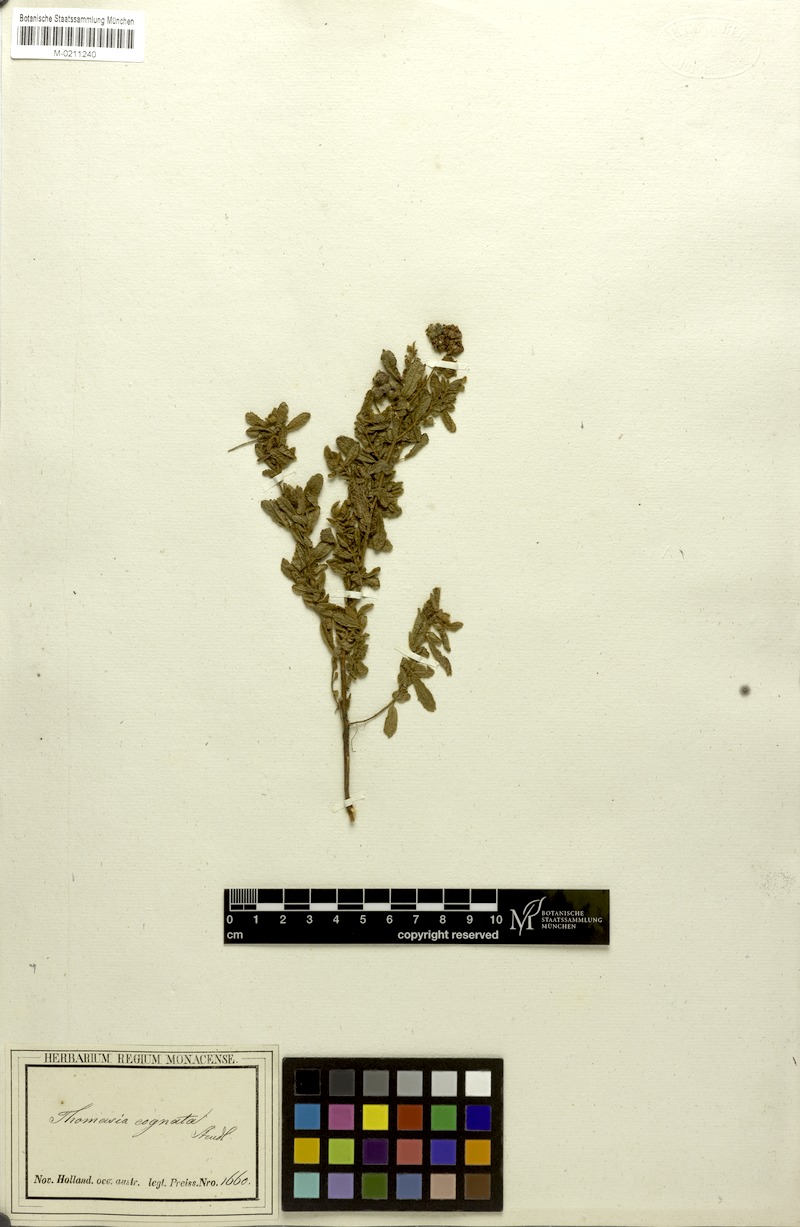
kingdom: Plantae
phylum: Tracheophyta
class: Magnoliopsida
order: Malvales
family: Malvaceae
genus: Thomasia
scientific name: Thomasia cognata
